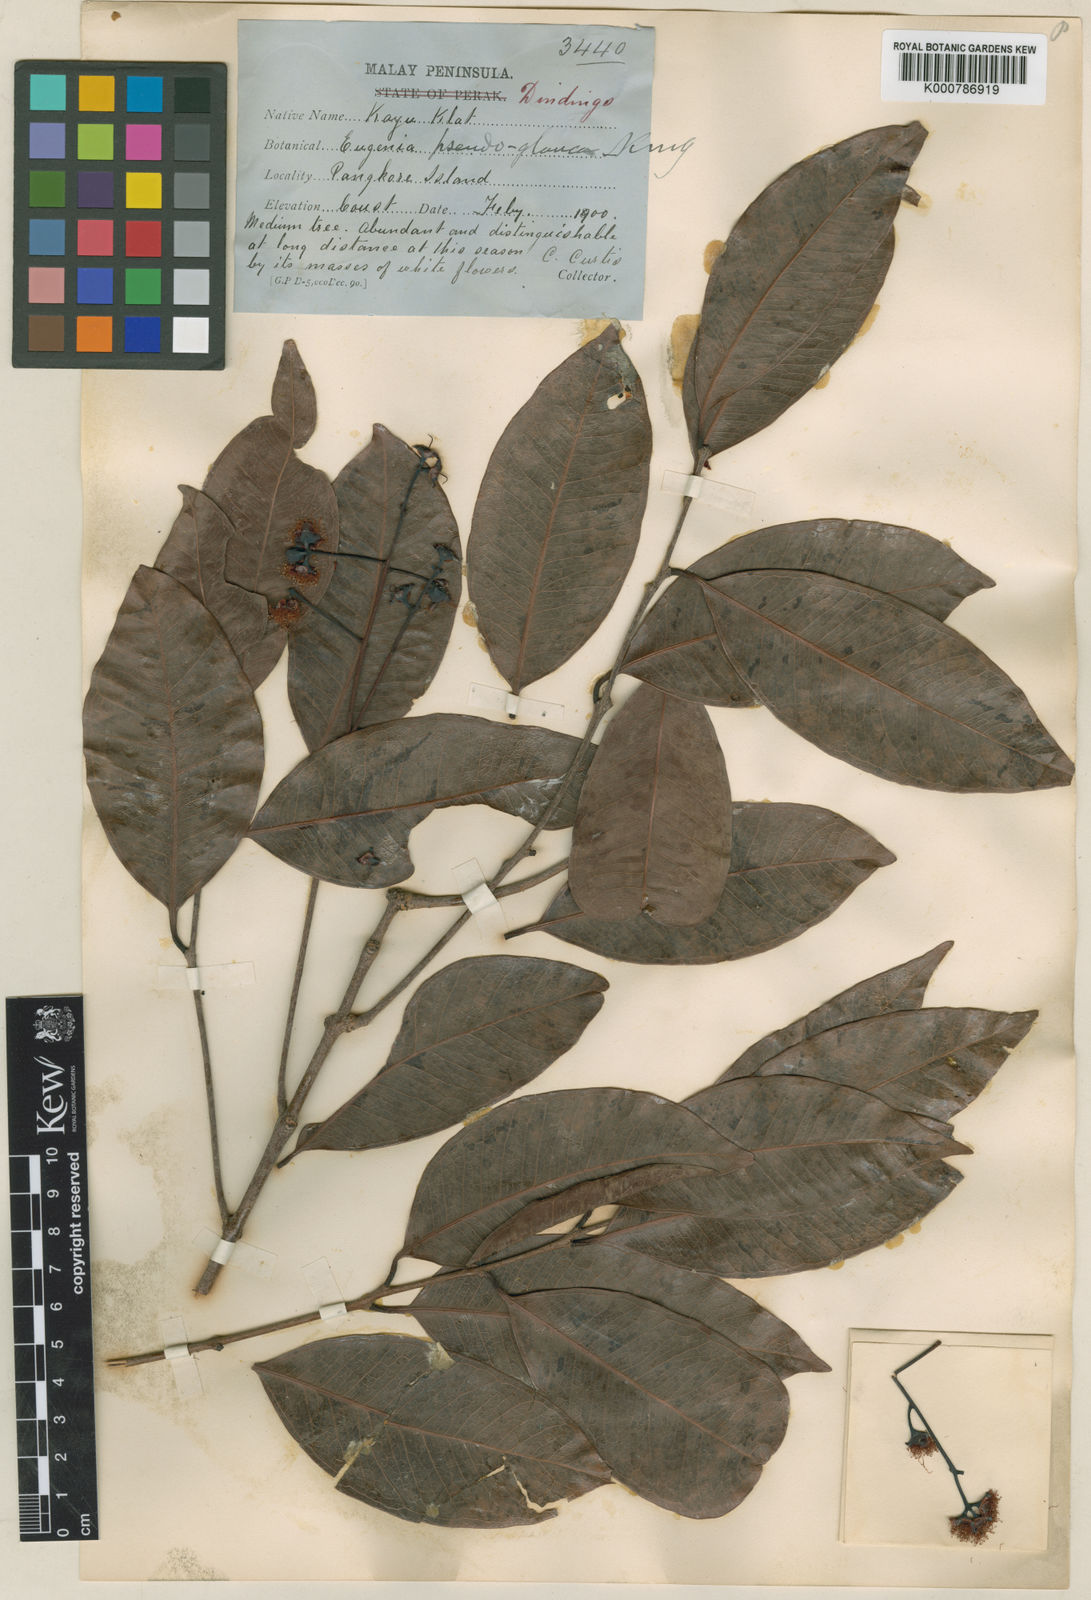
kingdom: Plantae
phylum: Tracheophyta
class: Magnoliopsida
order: Myrtales
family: Myrtaceae
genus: Syzygium
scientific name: Syzygium glaucum
